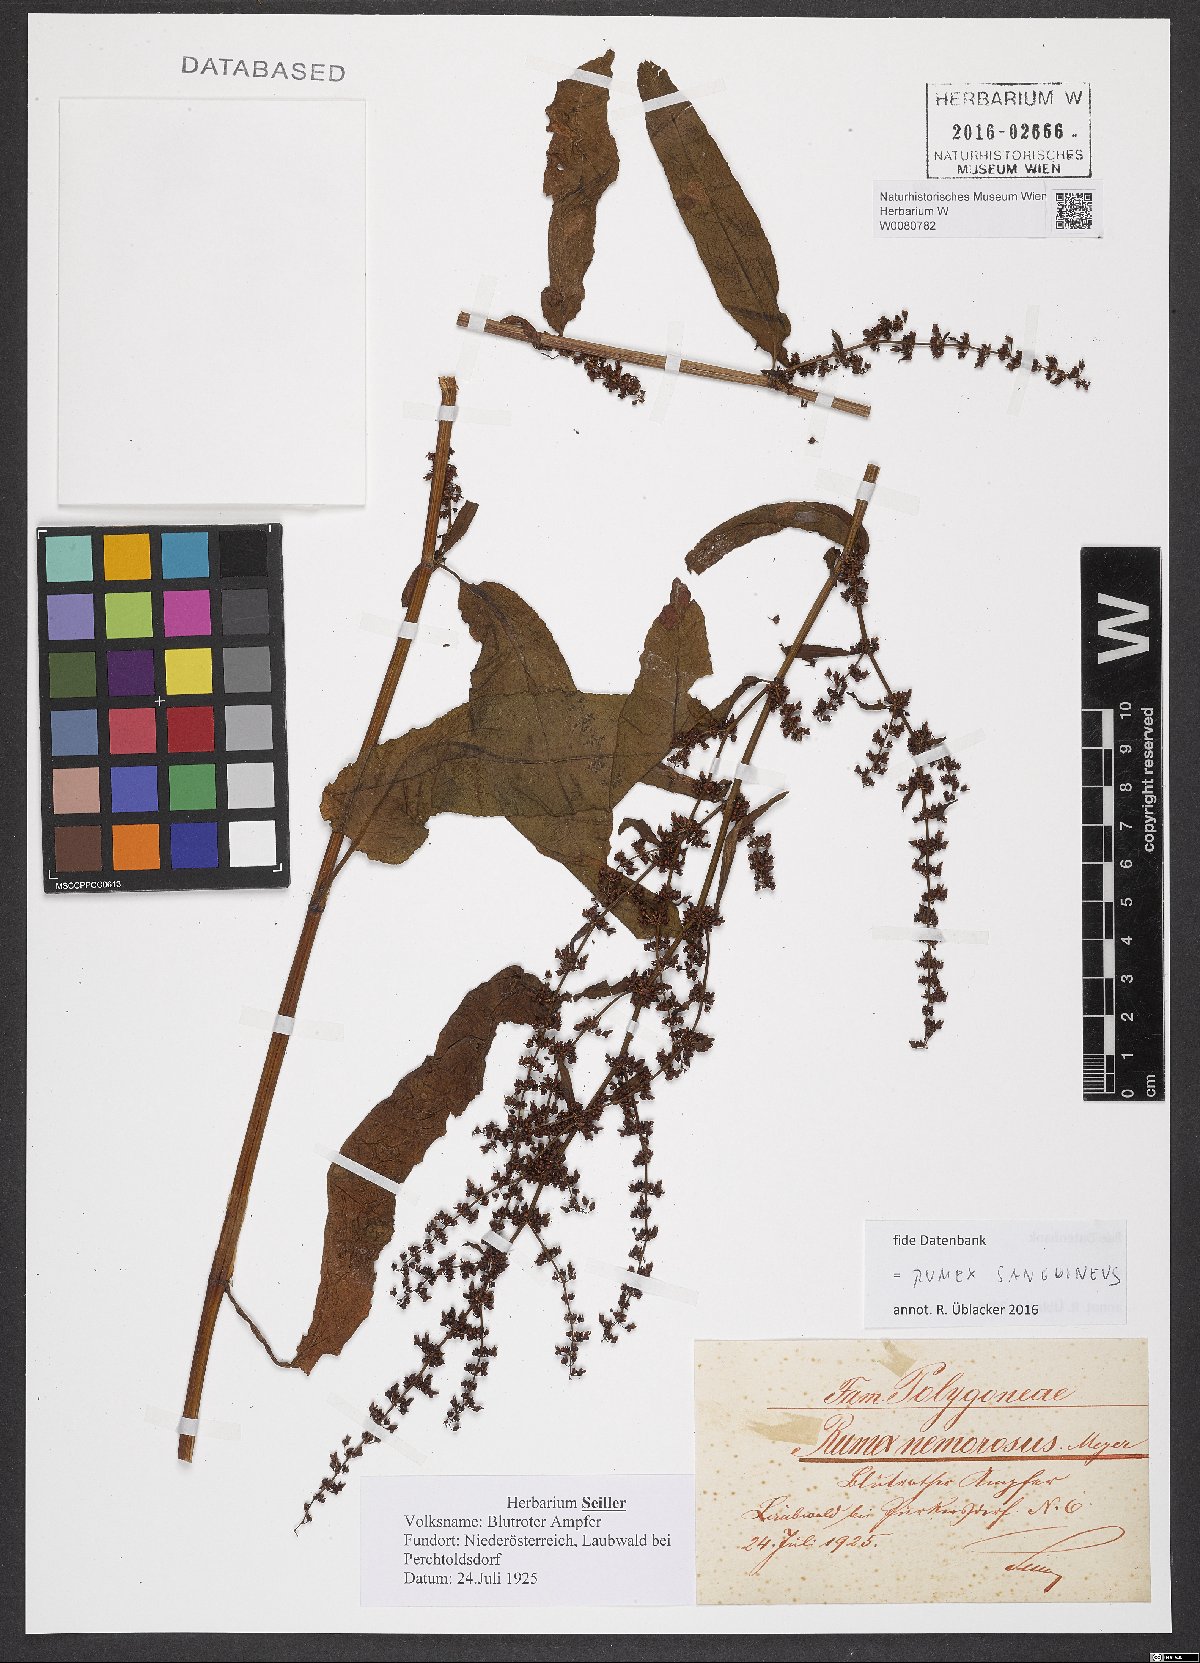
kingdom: Plantae
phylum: Tracheophyta
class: Magnoliopsida
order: Caryophyllales
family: Polygonaceae
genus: Rumex
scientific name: Rumex sanguineus
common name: Wood dock
